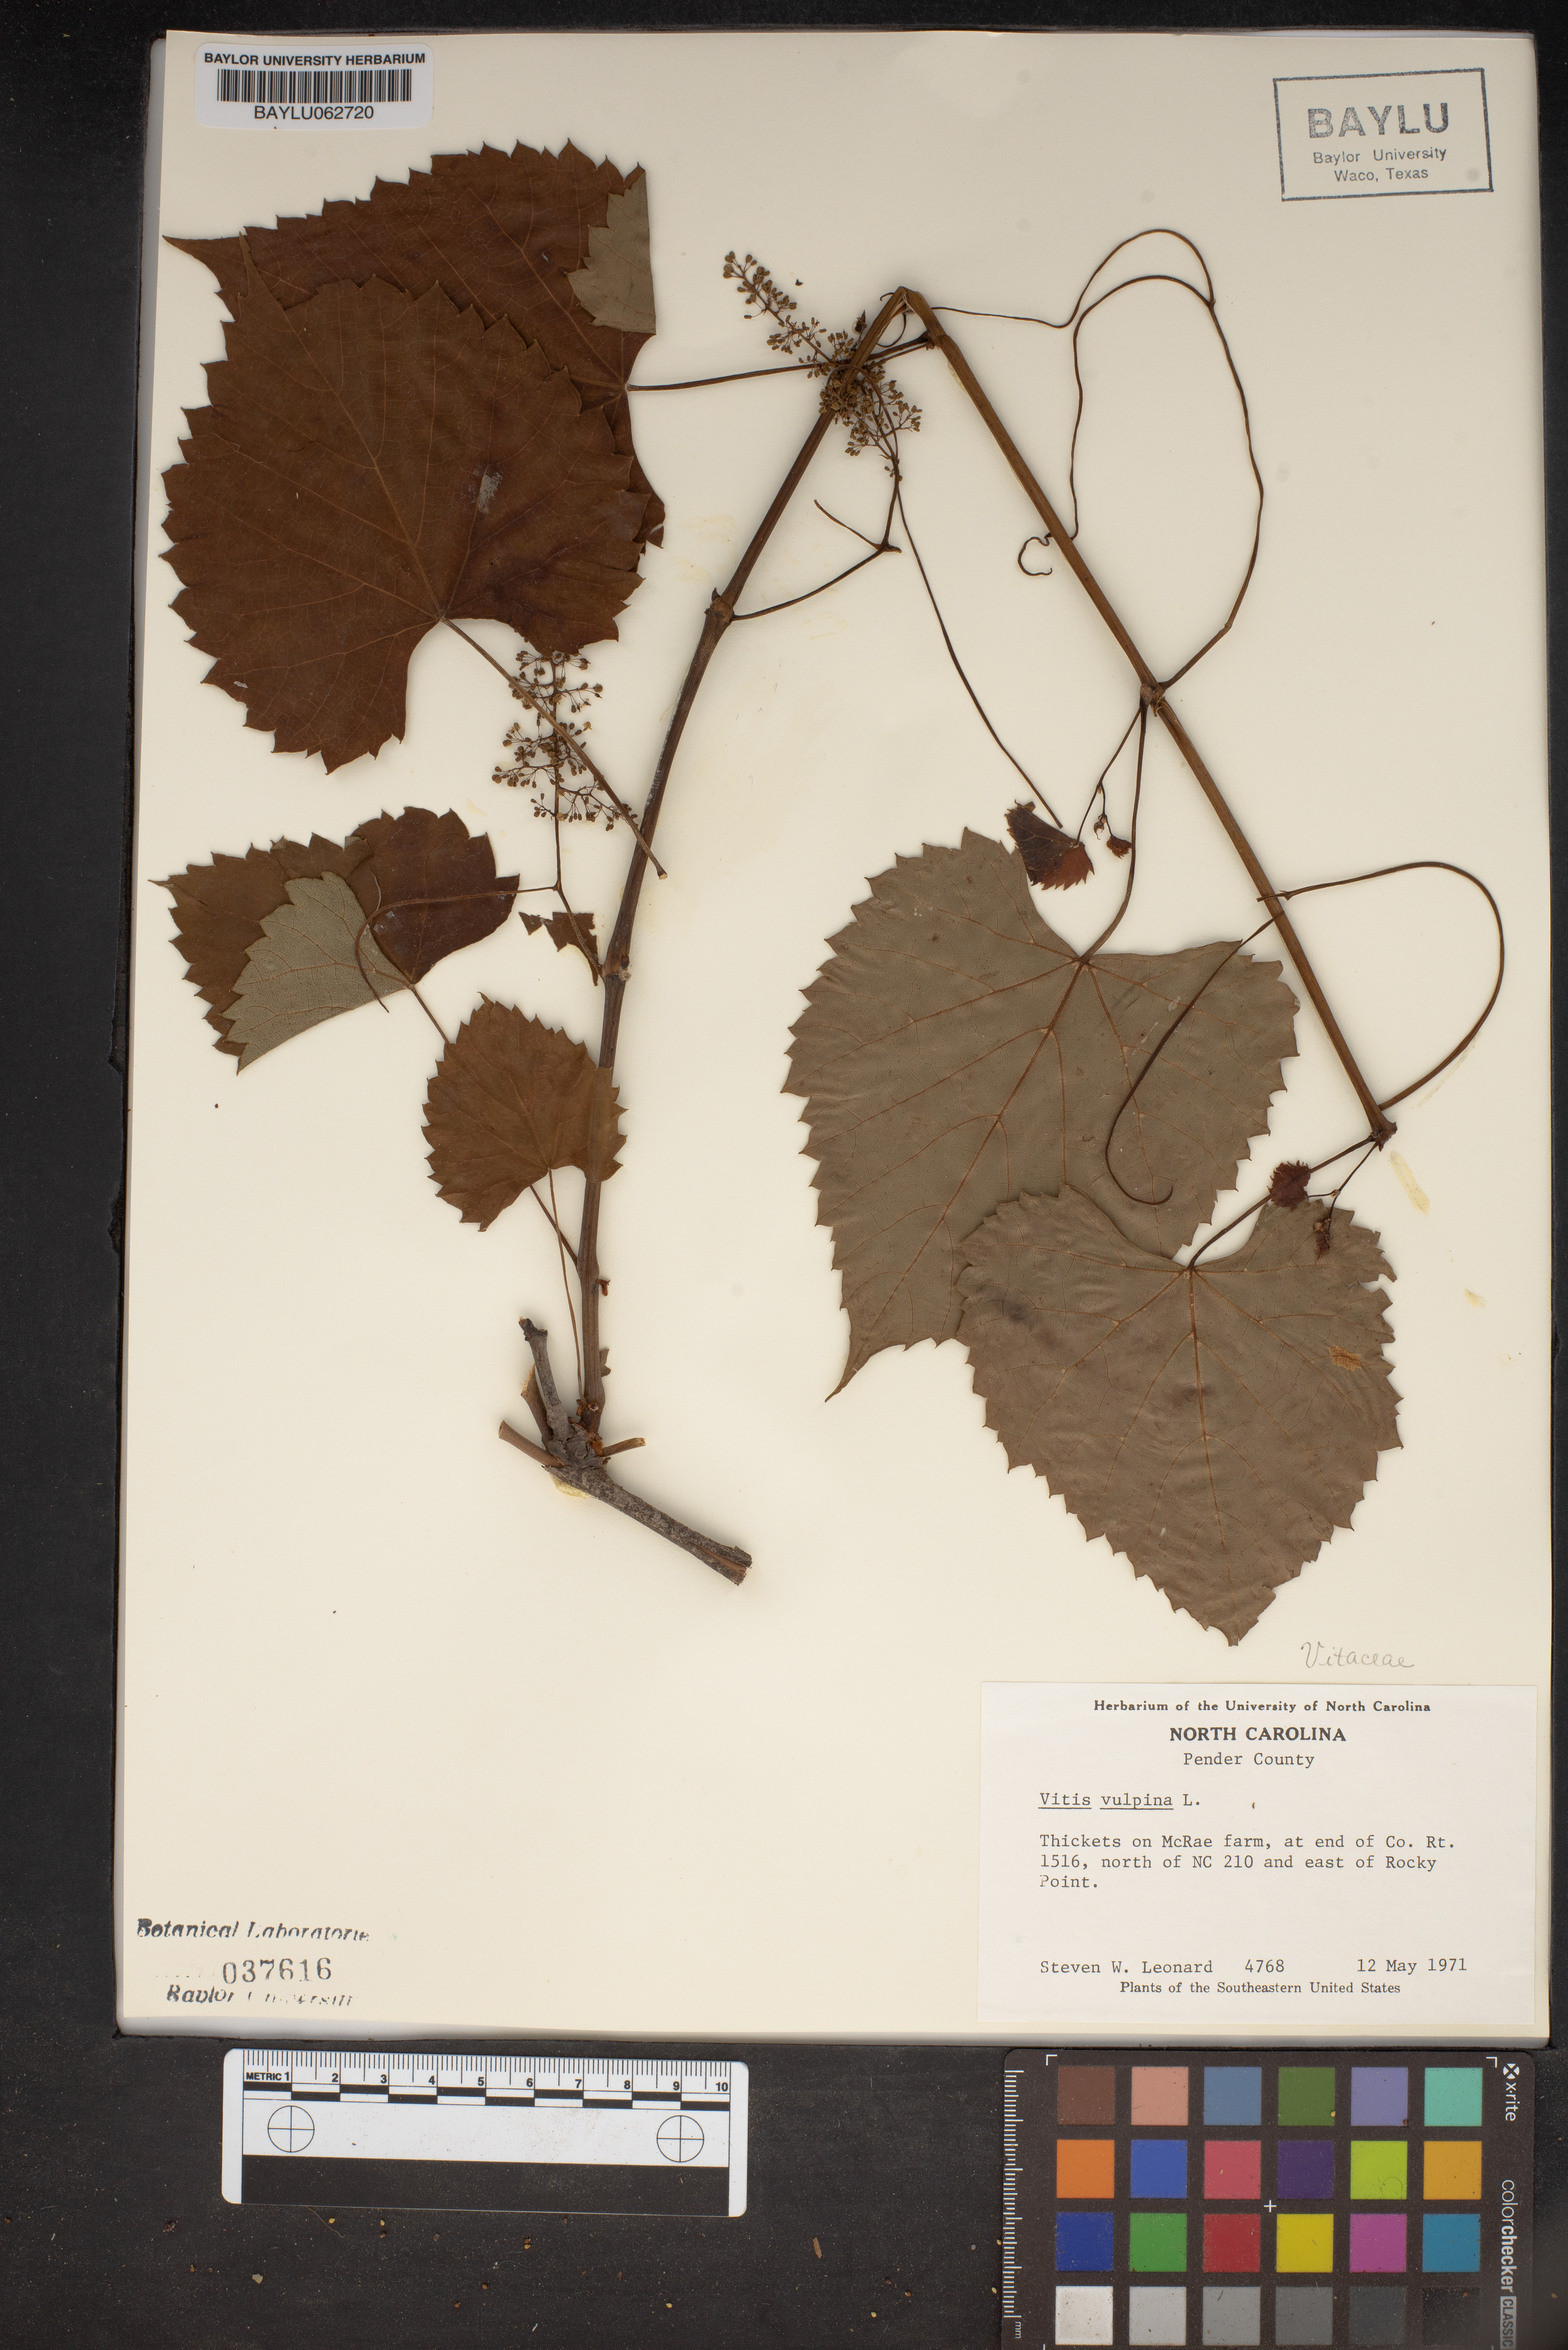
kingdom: Plantae
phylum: Tracheophyta
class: Magnoliopsida
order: Vitales
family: Vitaceae
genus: Vitis
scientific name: Vitis vulpina
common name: Frost grape
